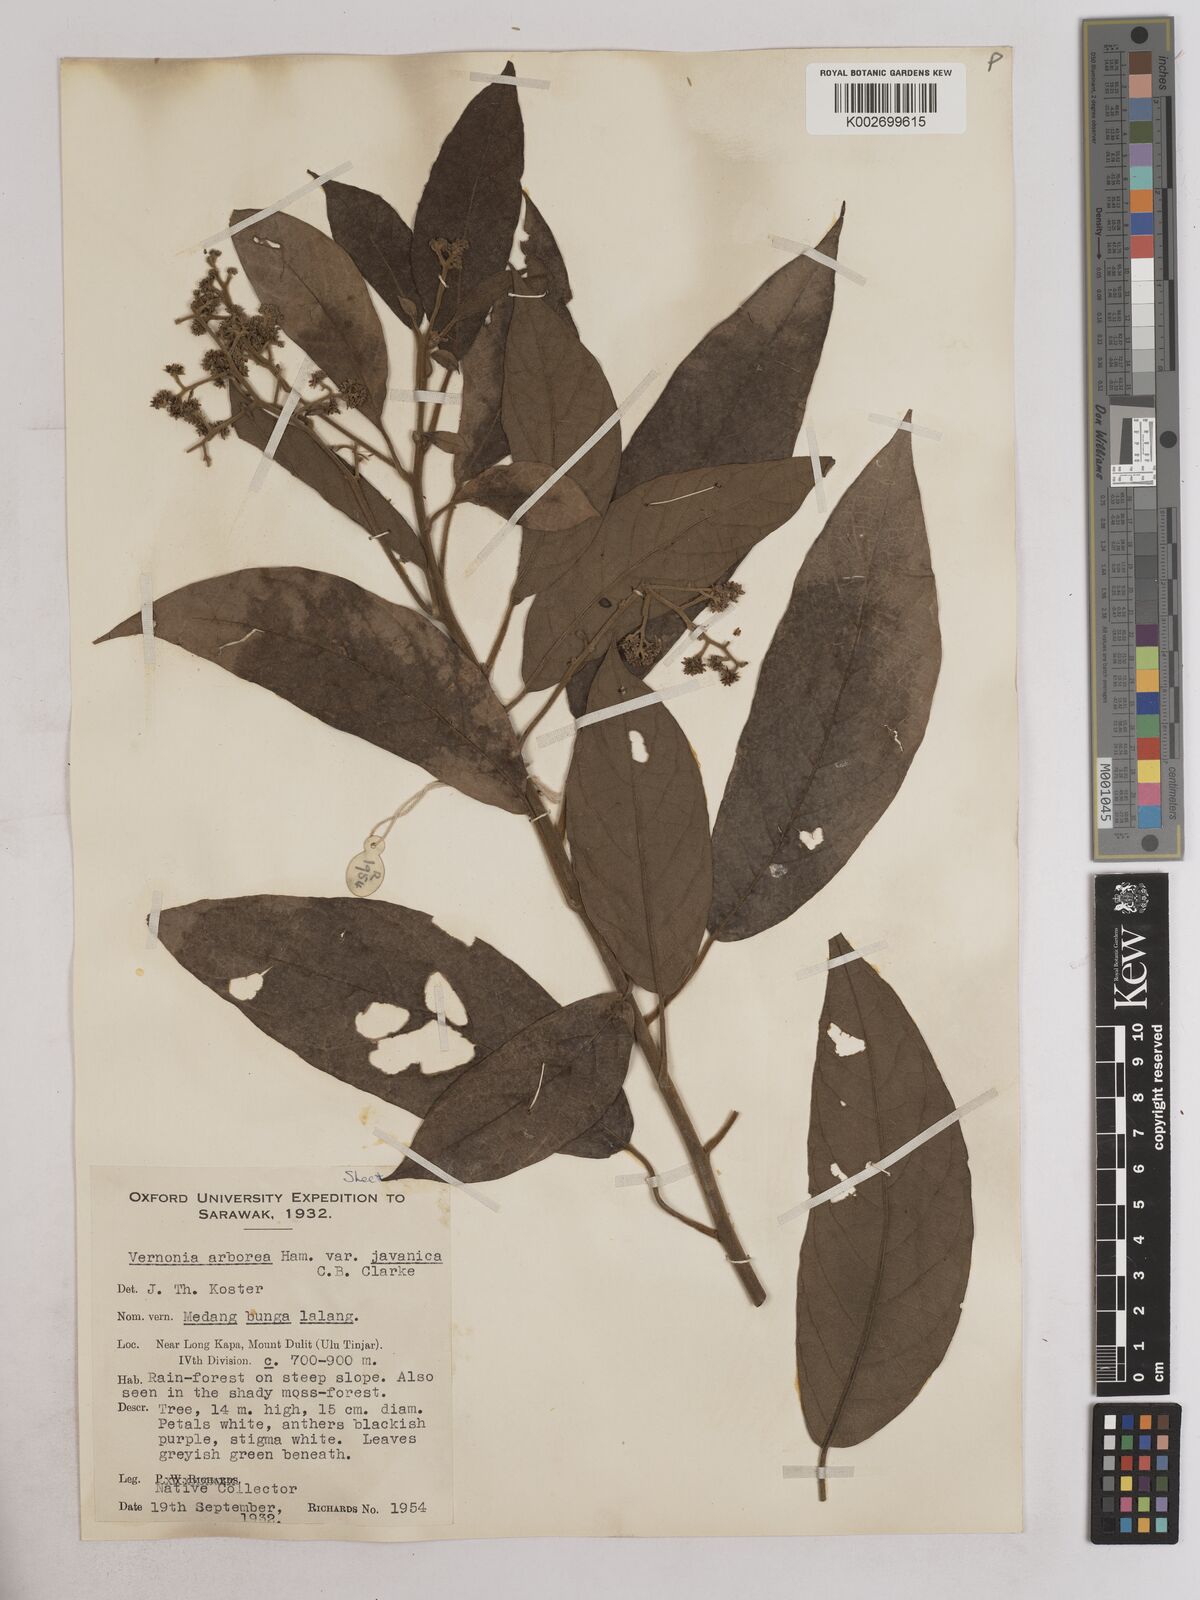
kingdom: Plantae
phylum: Tracheophyta
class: Magnoliopsida
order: Asterales
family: Asteraceae
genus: Strobocalyx
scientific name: Strobocalyx arborea
